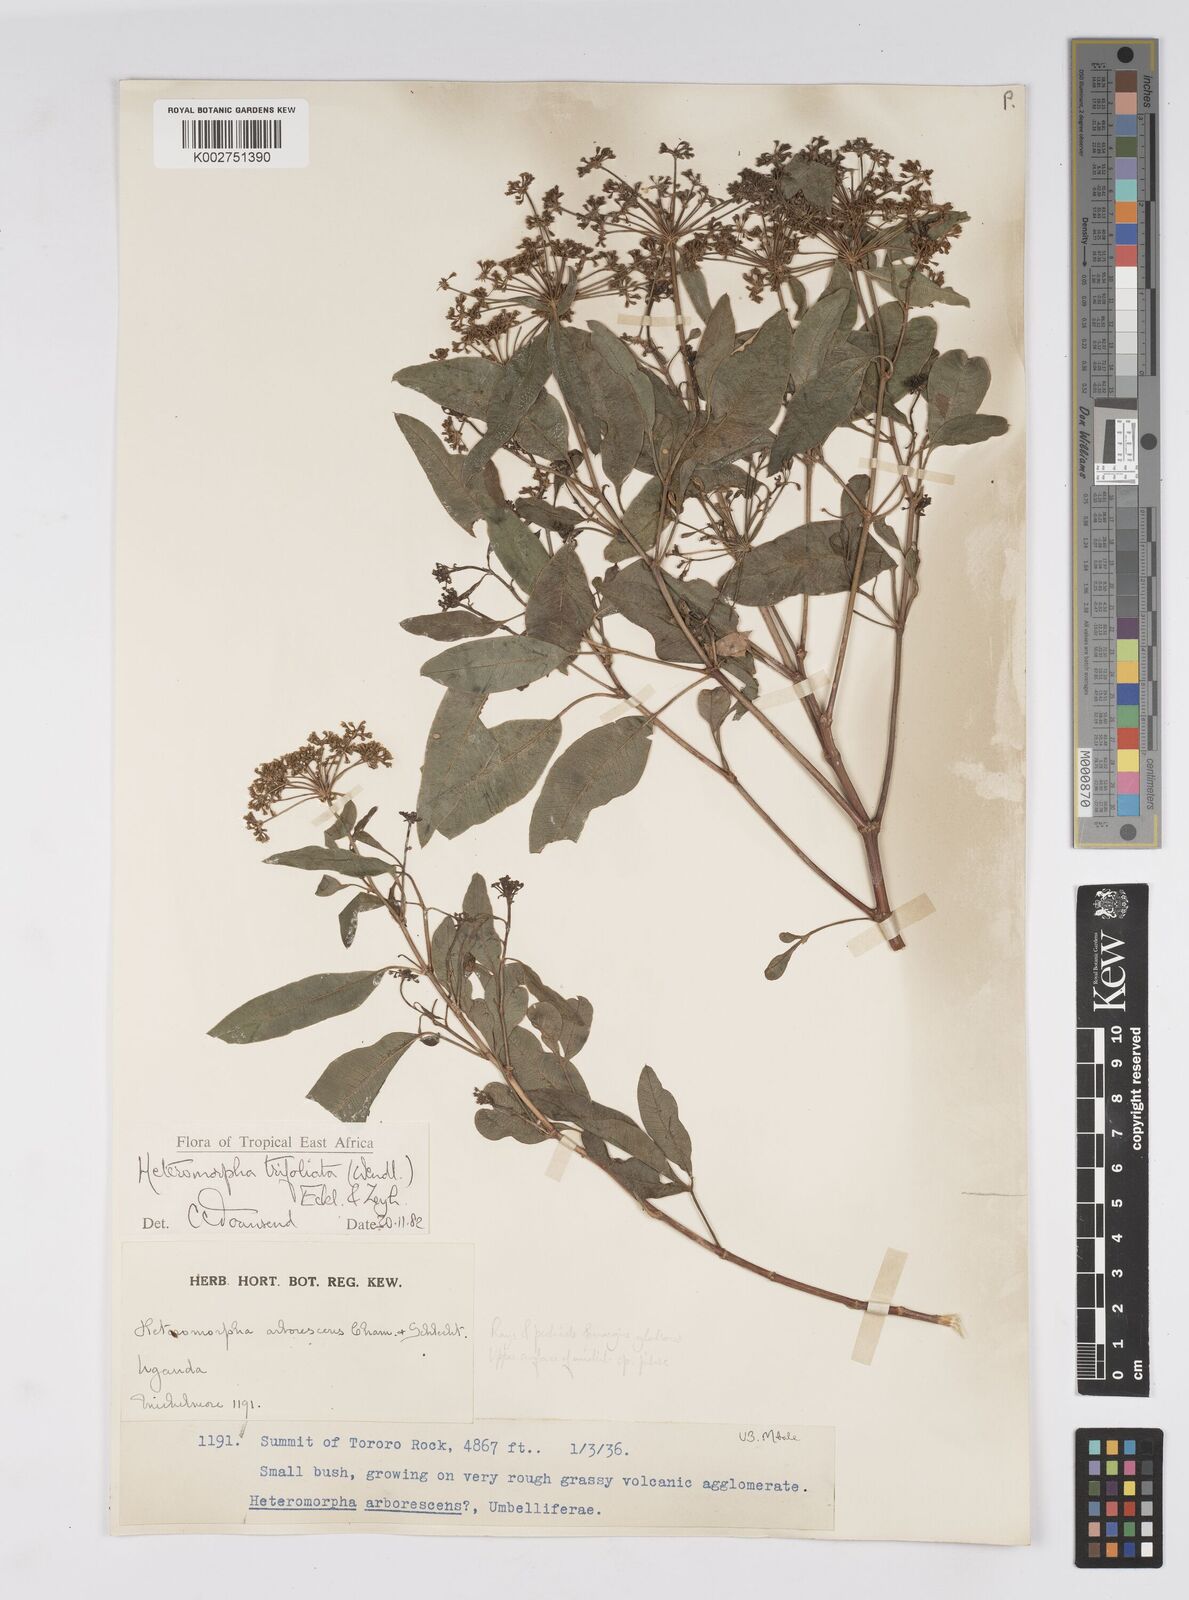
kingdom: Plantae
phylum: Tracheophyta
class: Magnoliopsida
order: Apiales
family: Apiaceae
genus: Heteromorpha
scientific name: Heteromorpha arborescens
